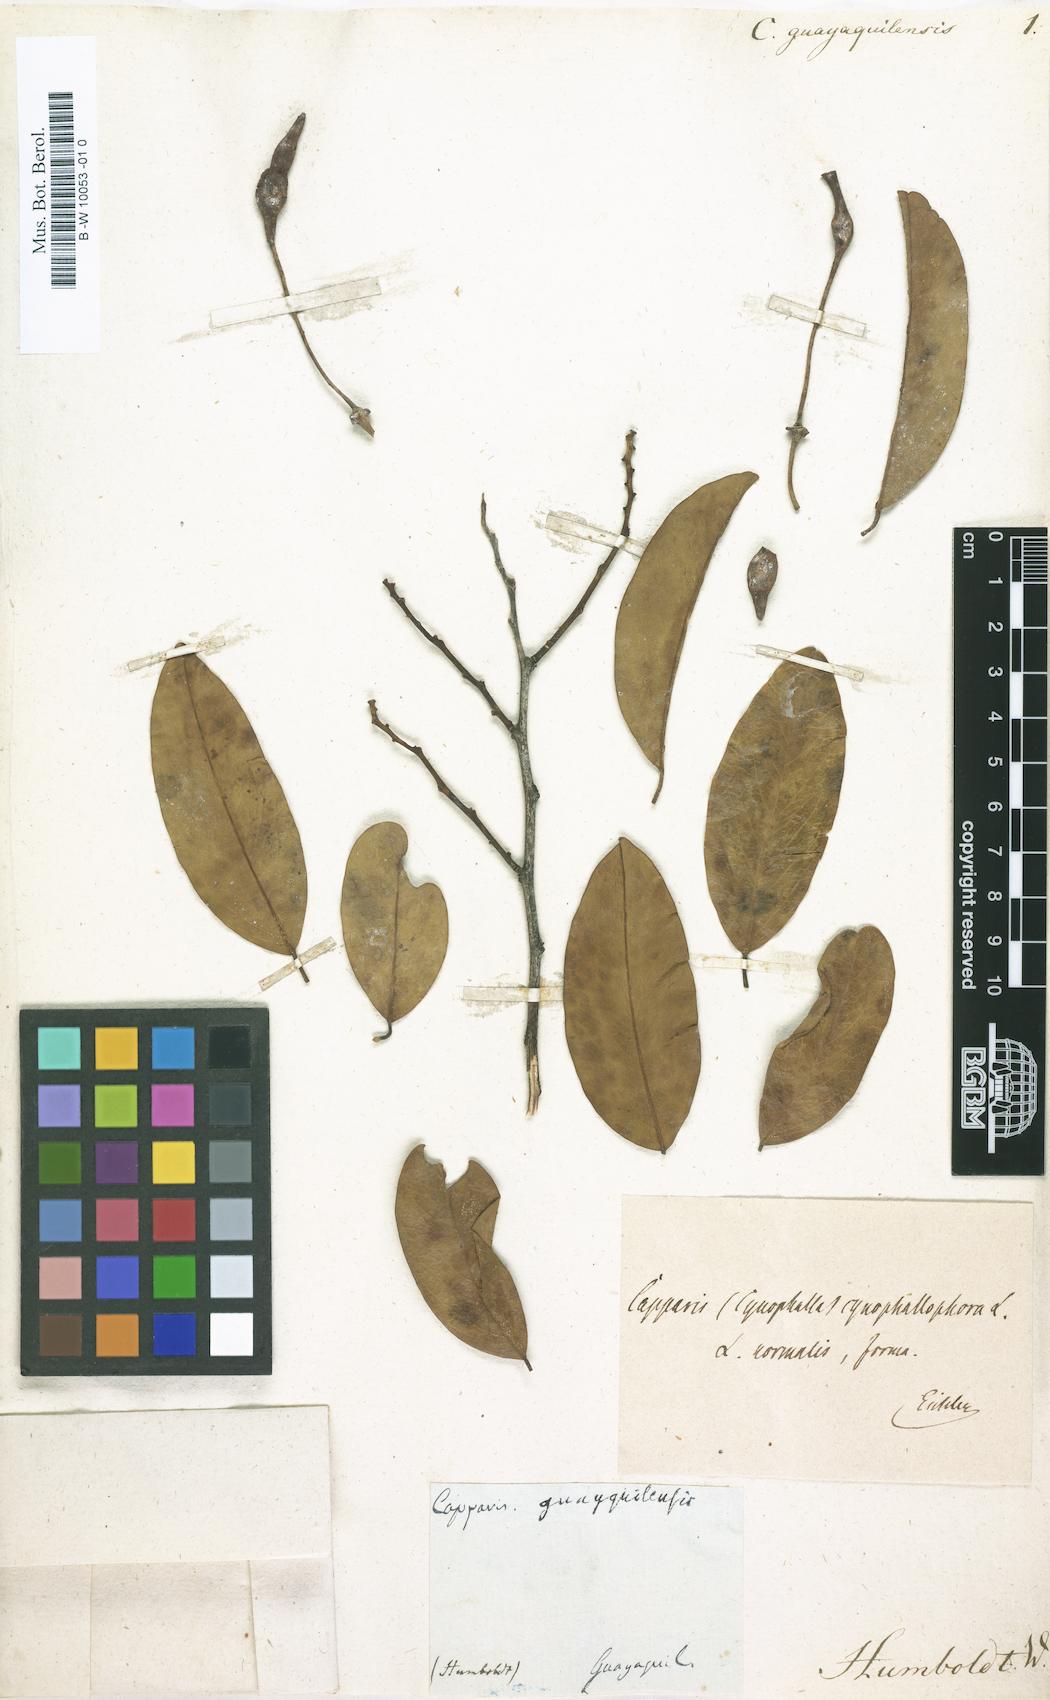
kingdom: Plantae
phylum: Tracheophyta
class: Magnoliopsida
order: Brassicales
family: Capparaceae
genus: Cynophalla
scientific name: Cynophalla guayaquilensis
